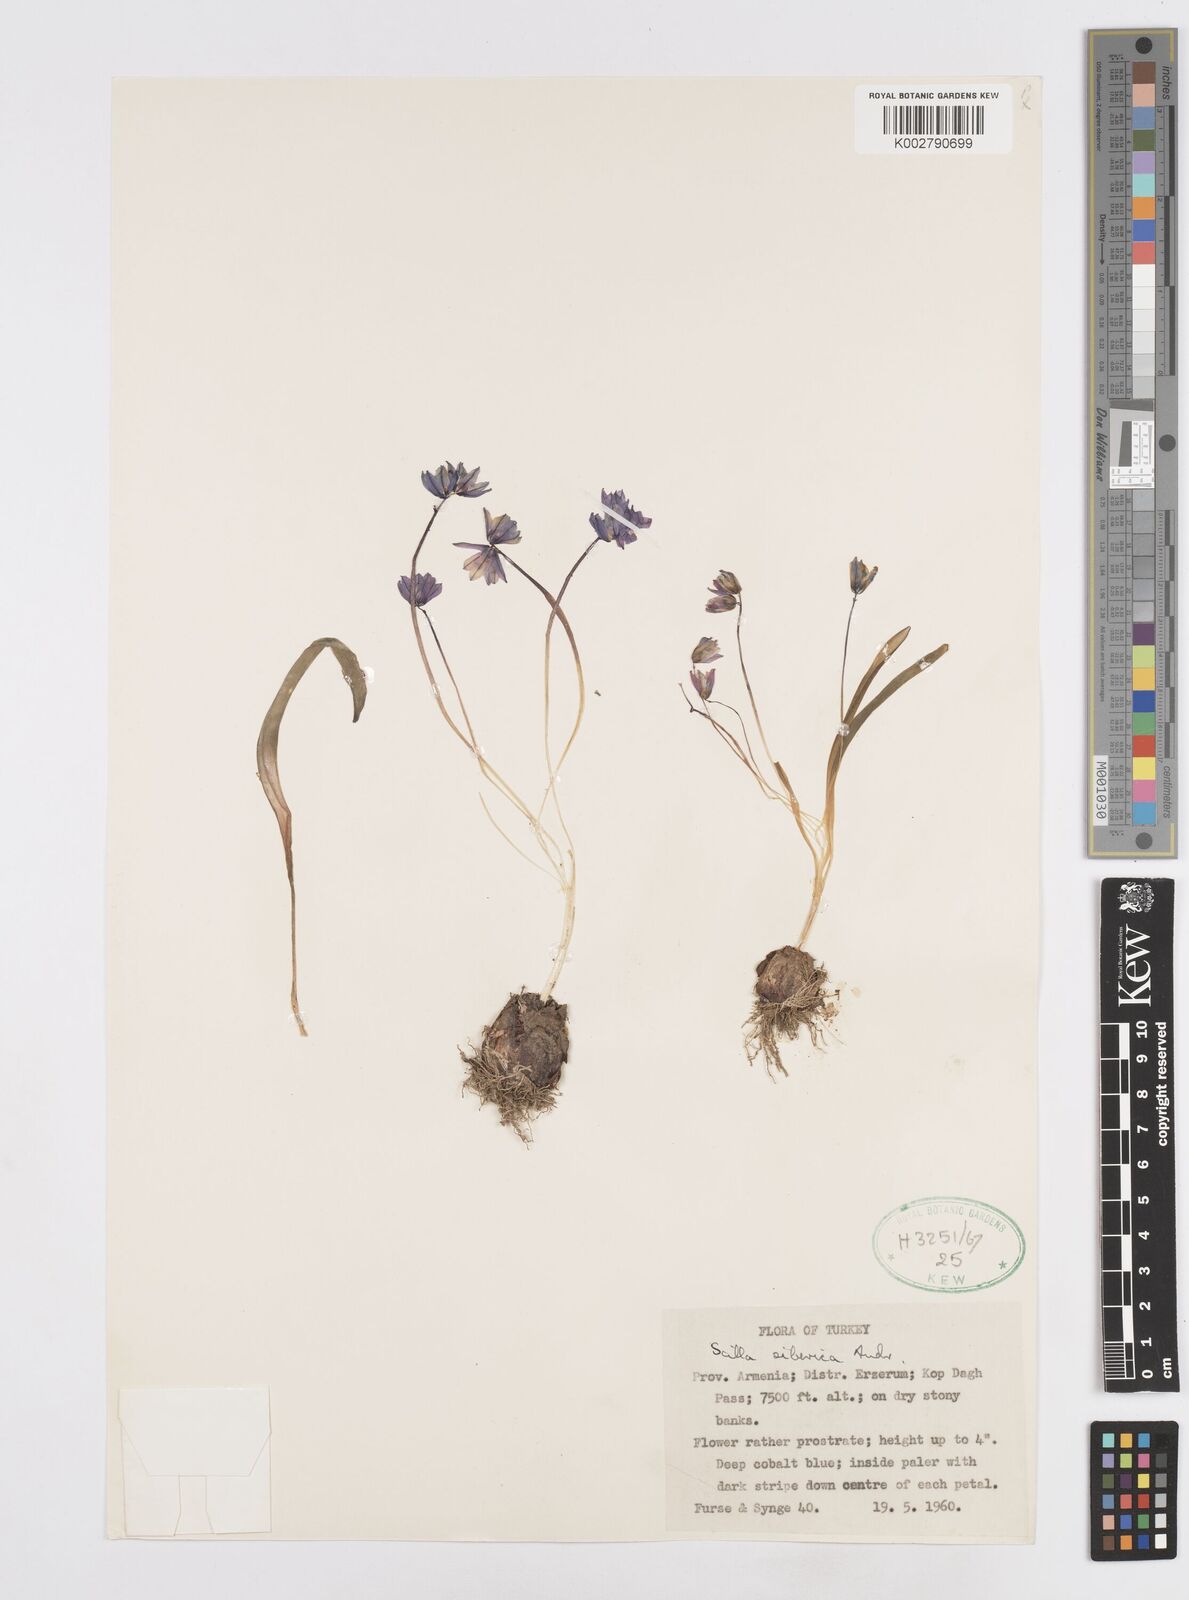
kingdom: Plantae
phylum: Tracheophyta
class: Liliopsida
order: Asparagales
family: Asparagaceae
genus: Scilla
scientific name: Scilla siberica
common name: Siberian squill
